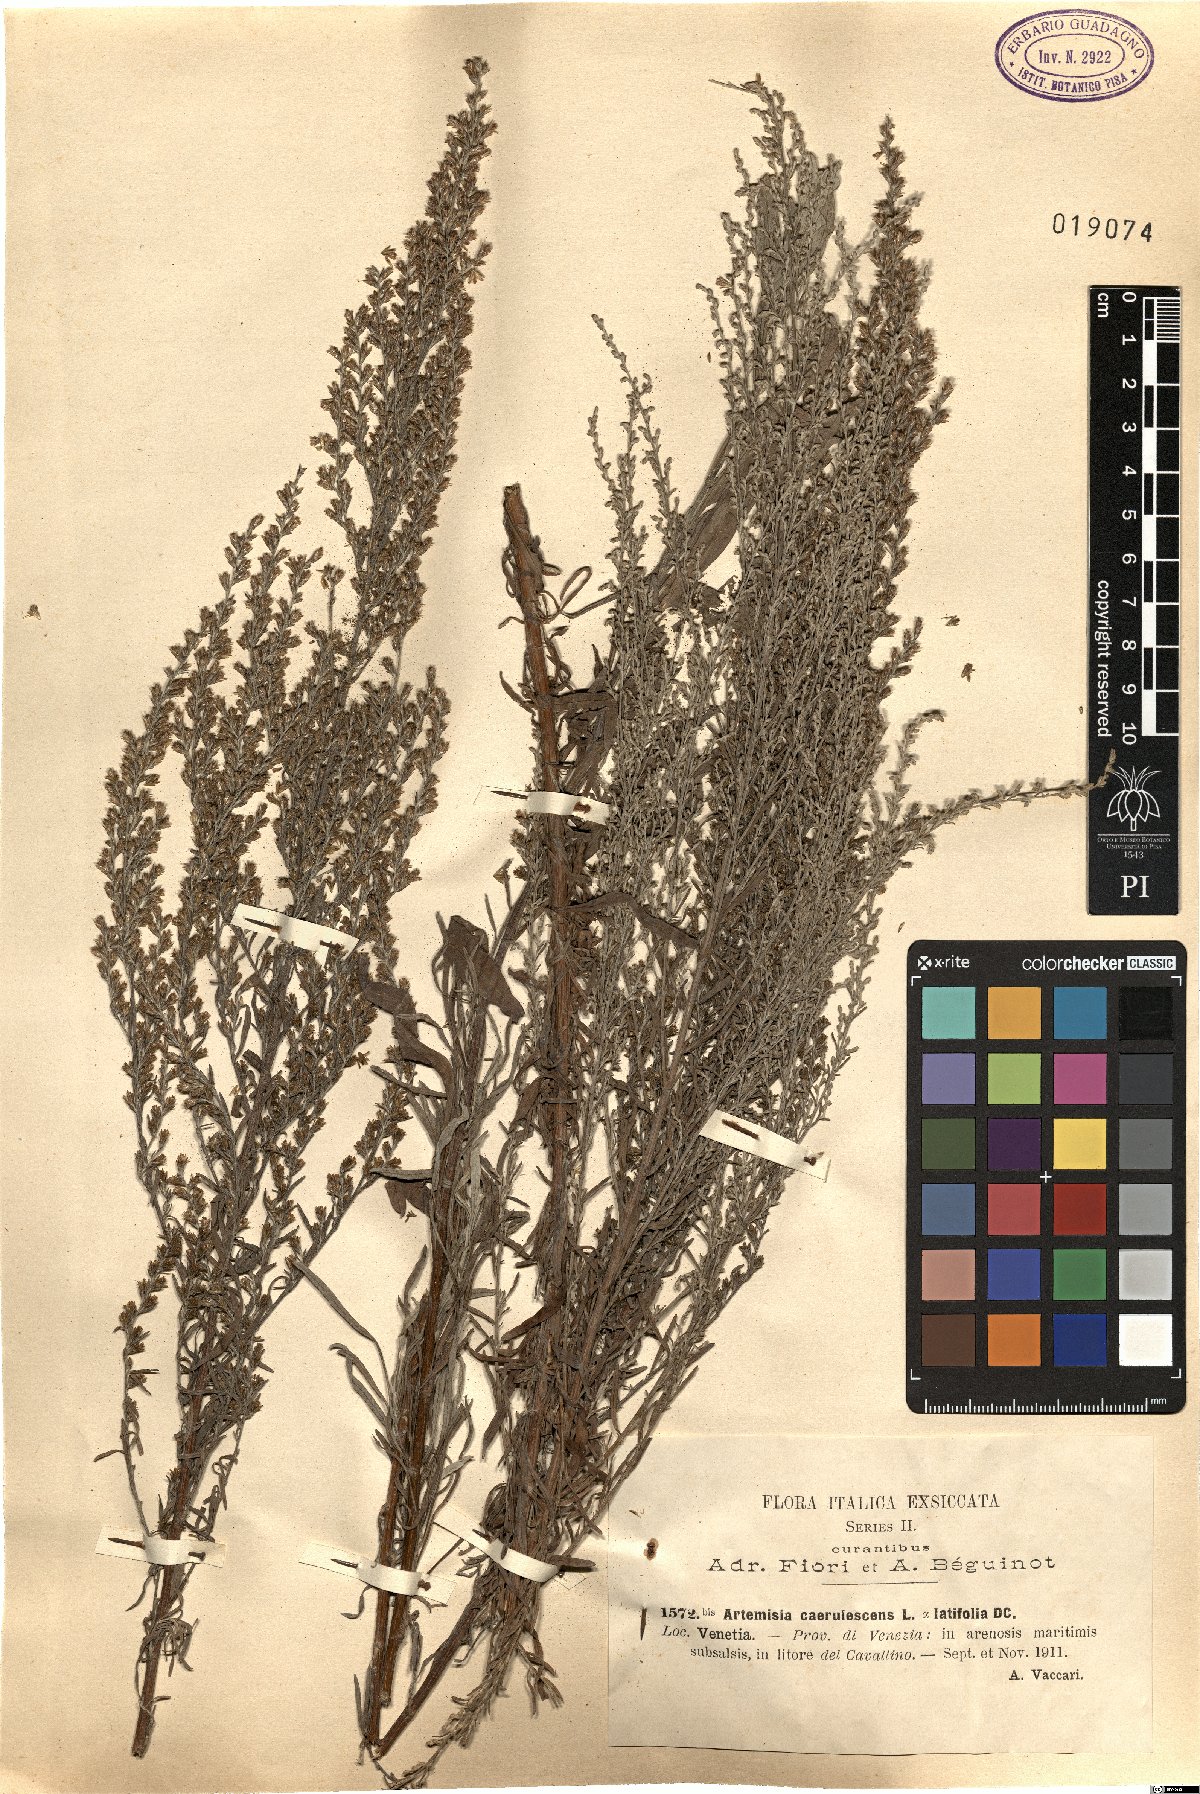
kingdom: Plantae
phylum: Tracheophyta
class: Magnoliopsida
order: Asterales
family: Asteraceae
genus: Artemisia
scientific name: Artemisia caerulescens
